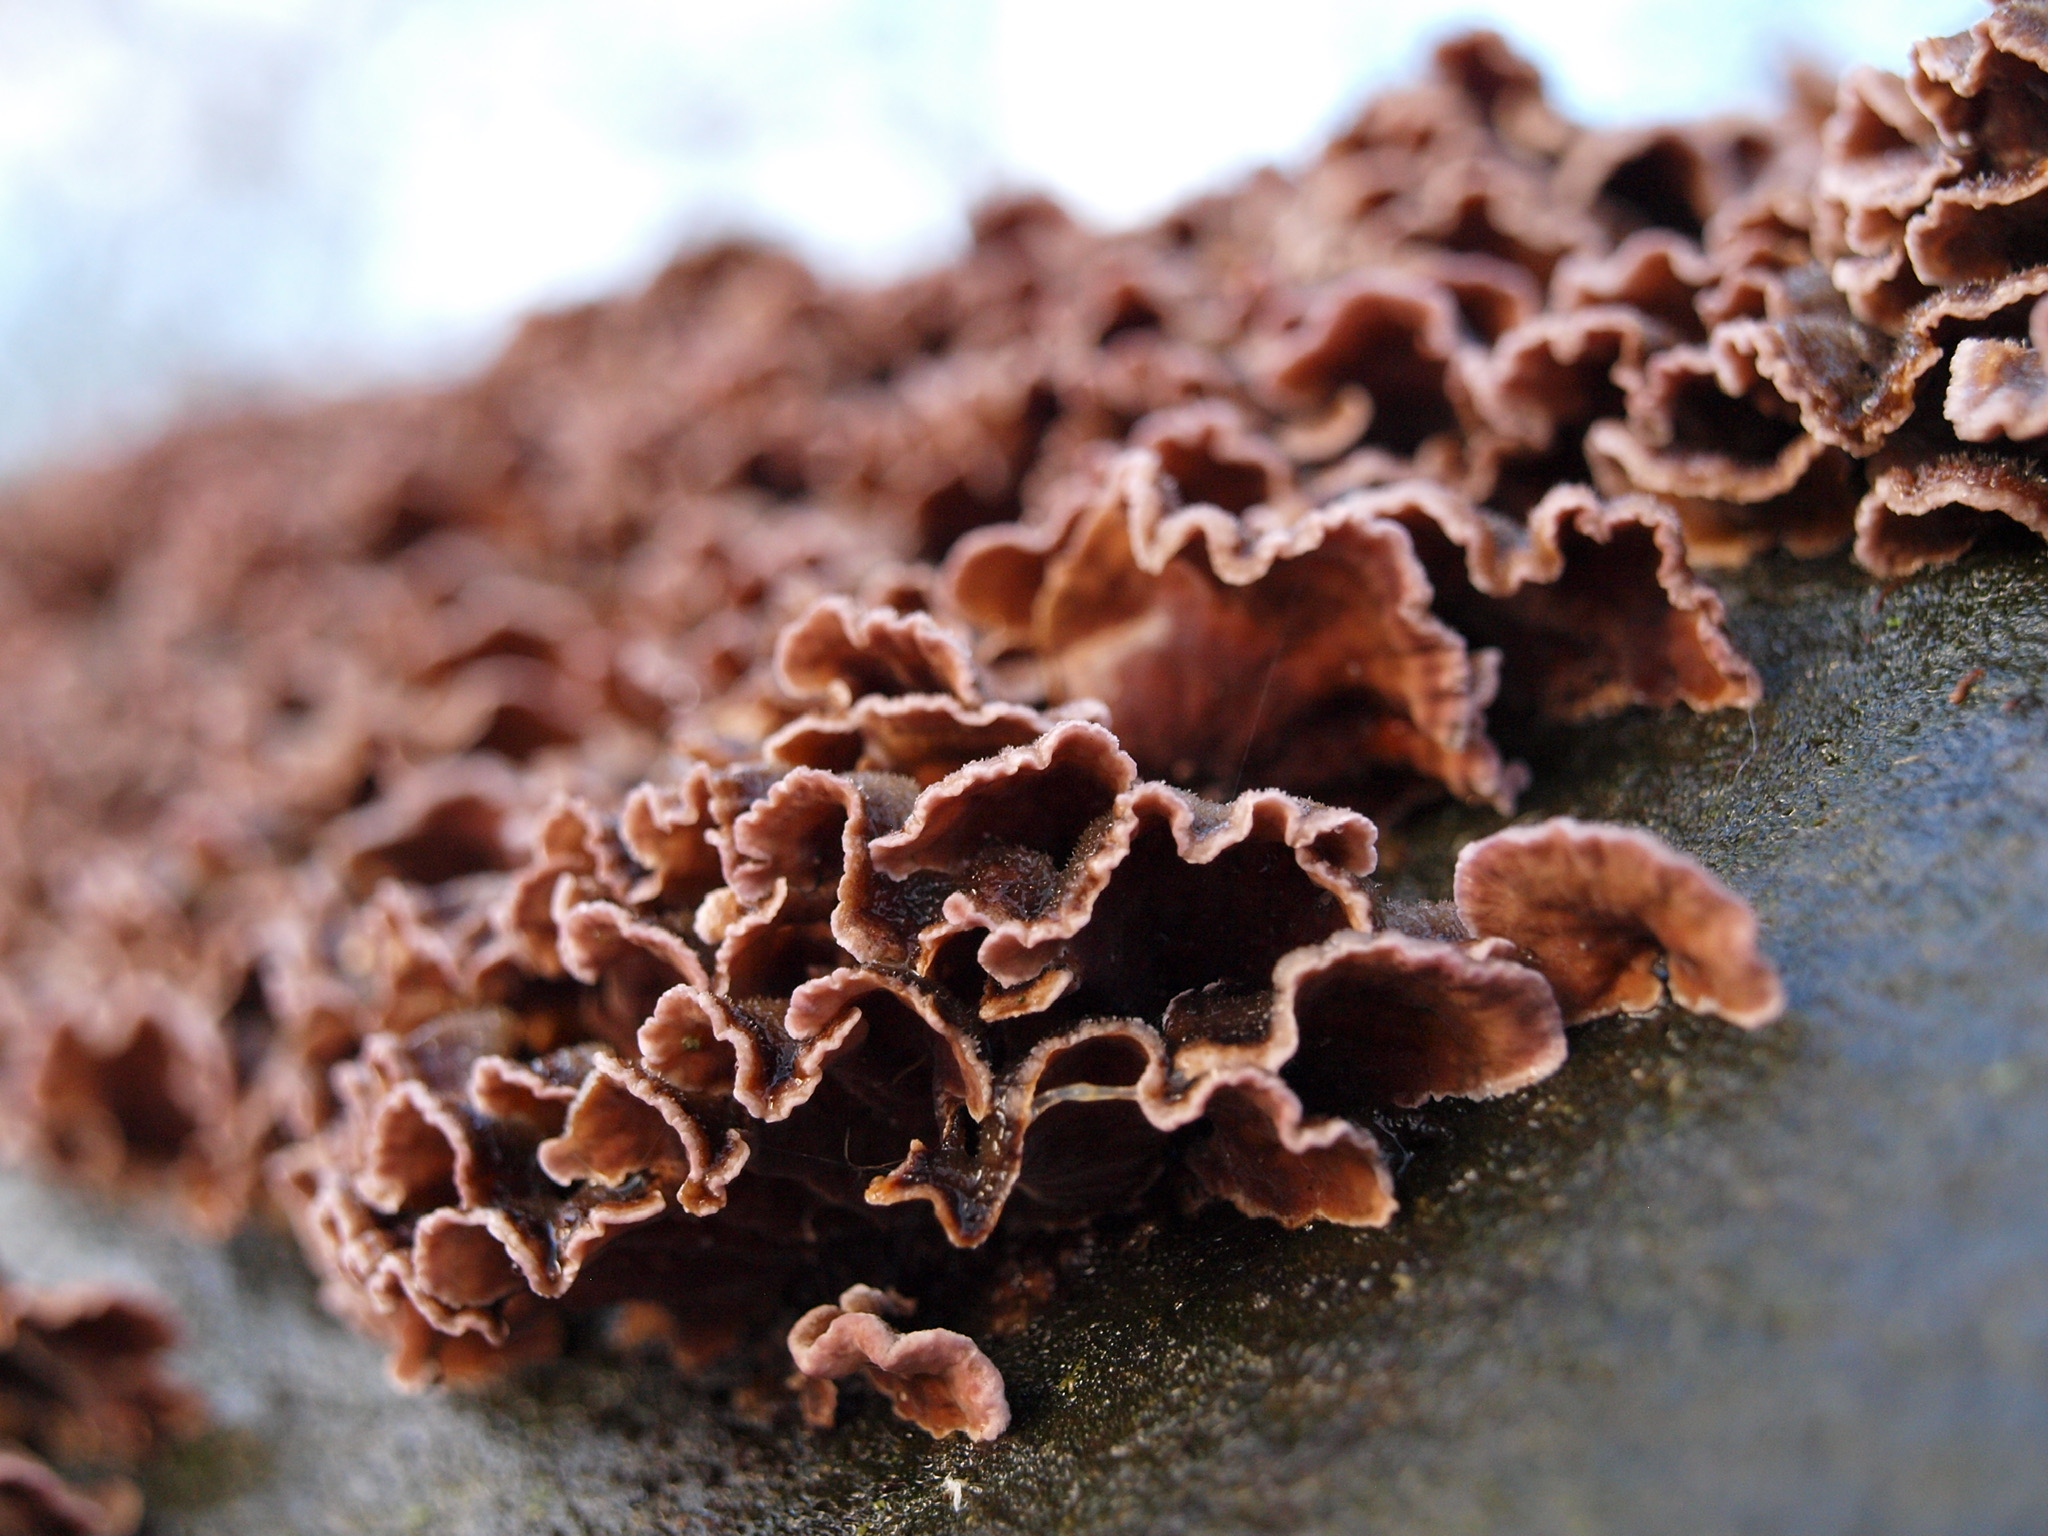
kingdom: Fungi
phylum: Basidiomycota
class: Agaricomycetes
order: Agaricales
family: Cyphellaceae
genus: Chondrostereum
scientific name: Chondrostereum purpureum
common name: purpurlædersvamp
